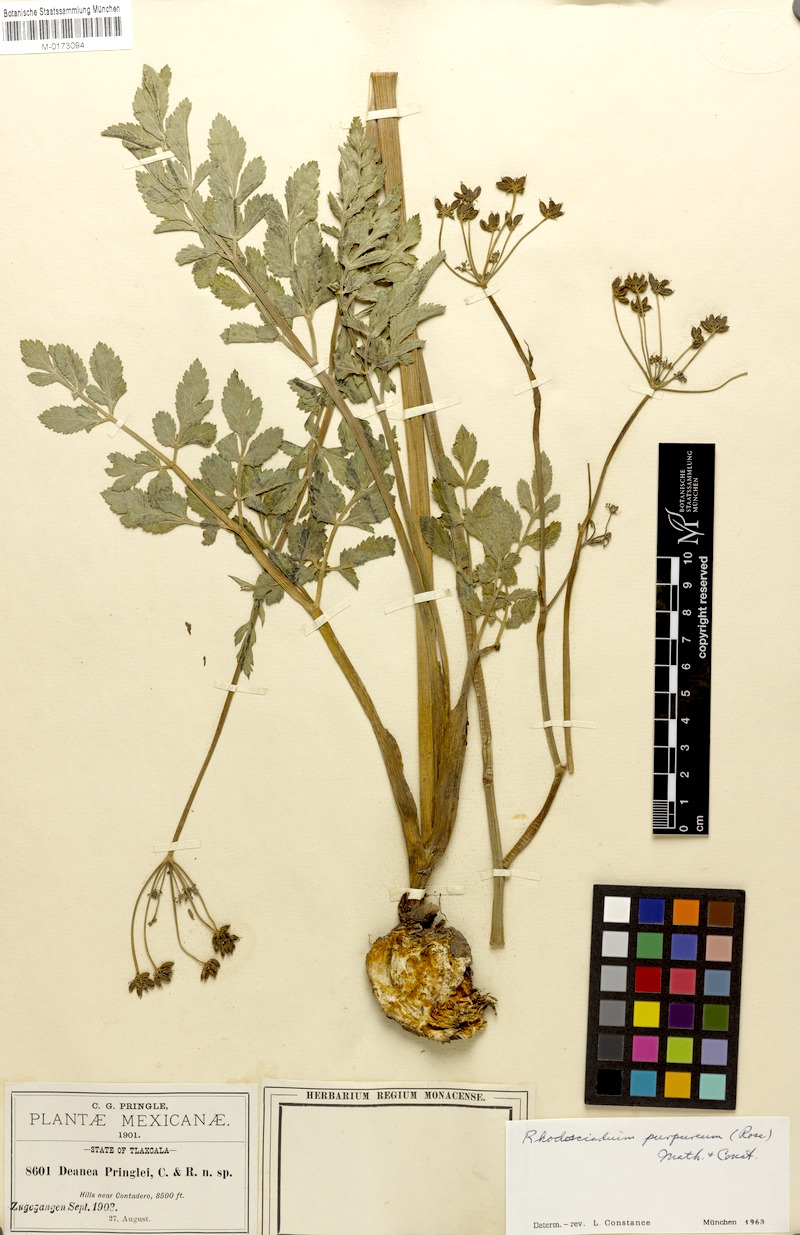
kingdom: Plantae
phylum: Tracheophyta
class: Magnoliopsida
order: Apiales
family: Apiaceae
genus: Rhodosciadium
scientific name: Rhodosciadium purpureum
